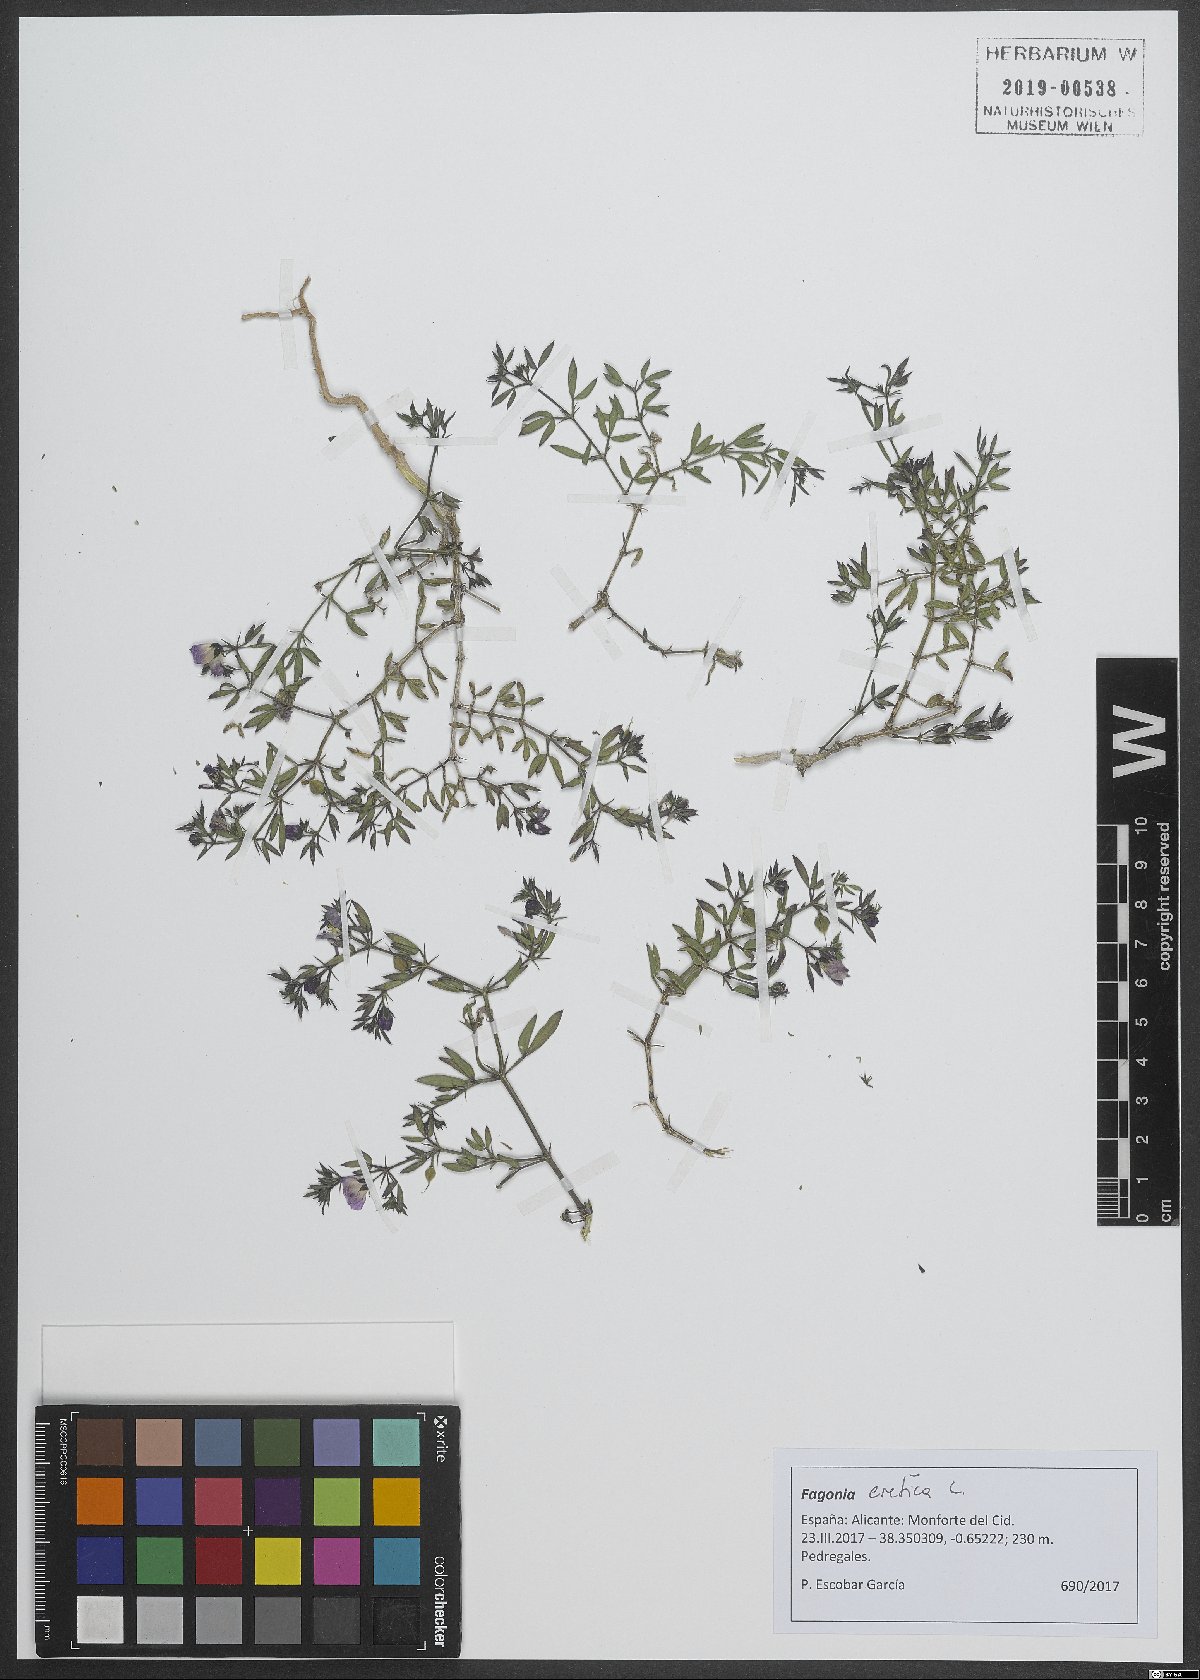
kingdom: Plantae
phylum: Tracheophyta
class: Magnoliopsida
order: Zygophyllales
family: Zygophyllaceae
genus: Fagonia
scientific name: Fagonia cretica
